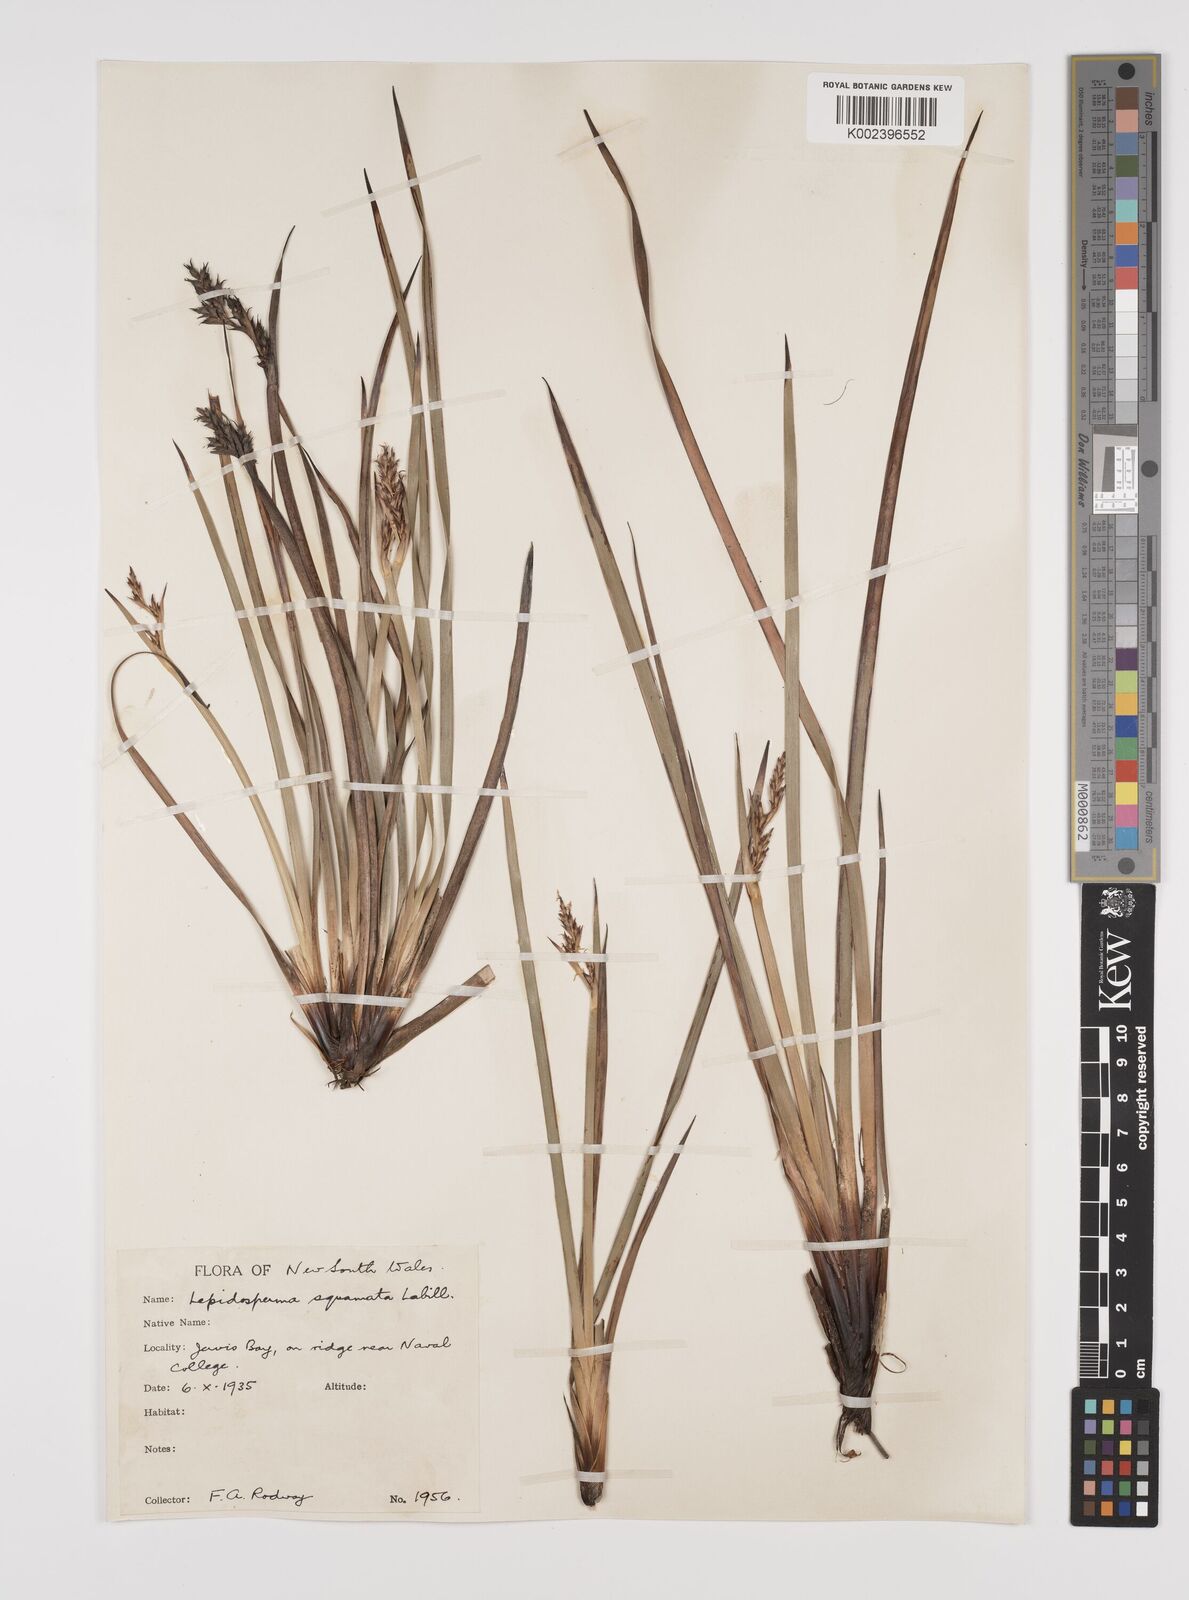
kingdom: Plantae
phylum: Tracheophyta
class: Liliopsida
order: Poales
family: Cyperaceae
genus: Lepidosperma
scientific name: Lepidosperma concavum
